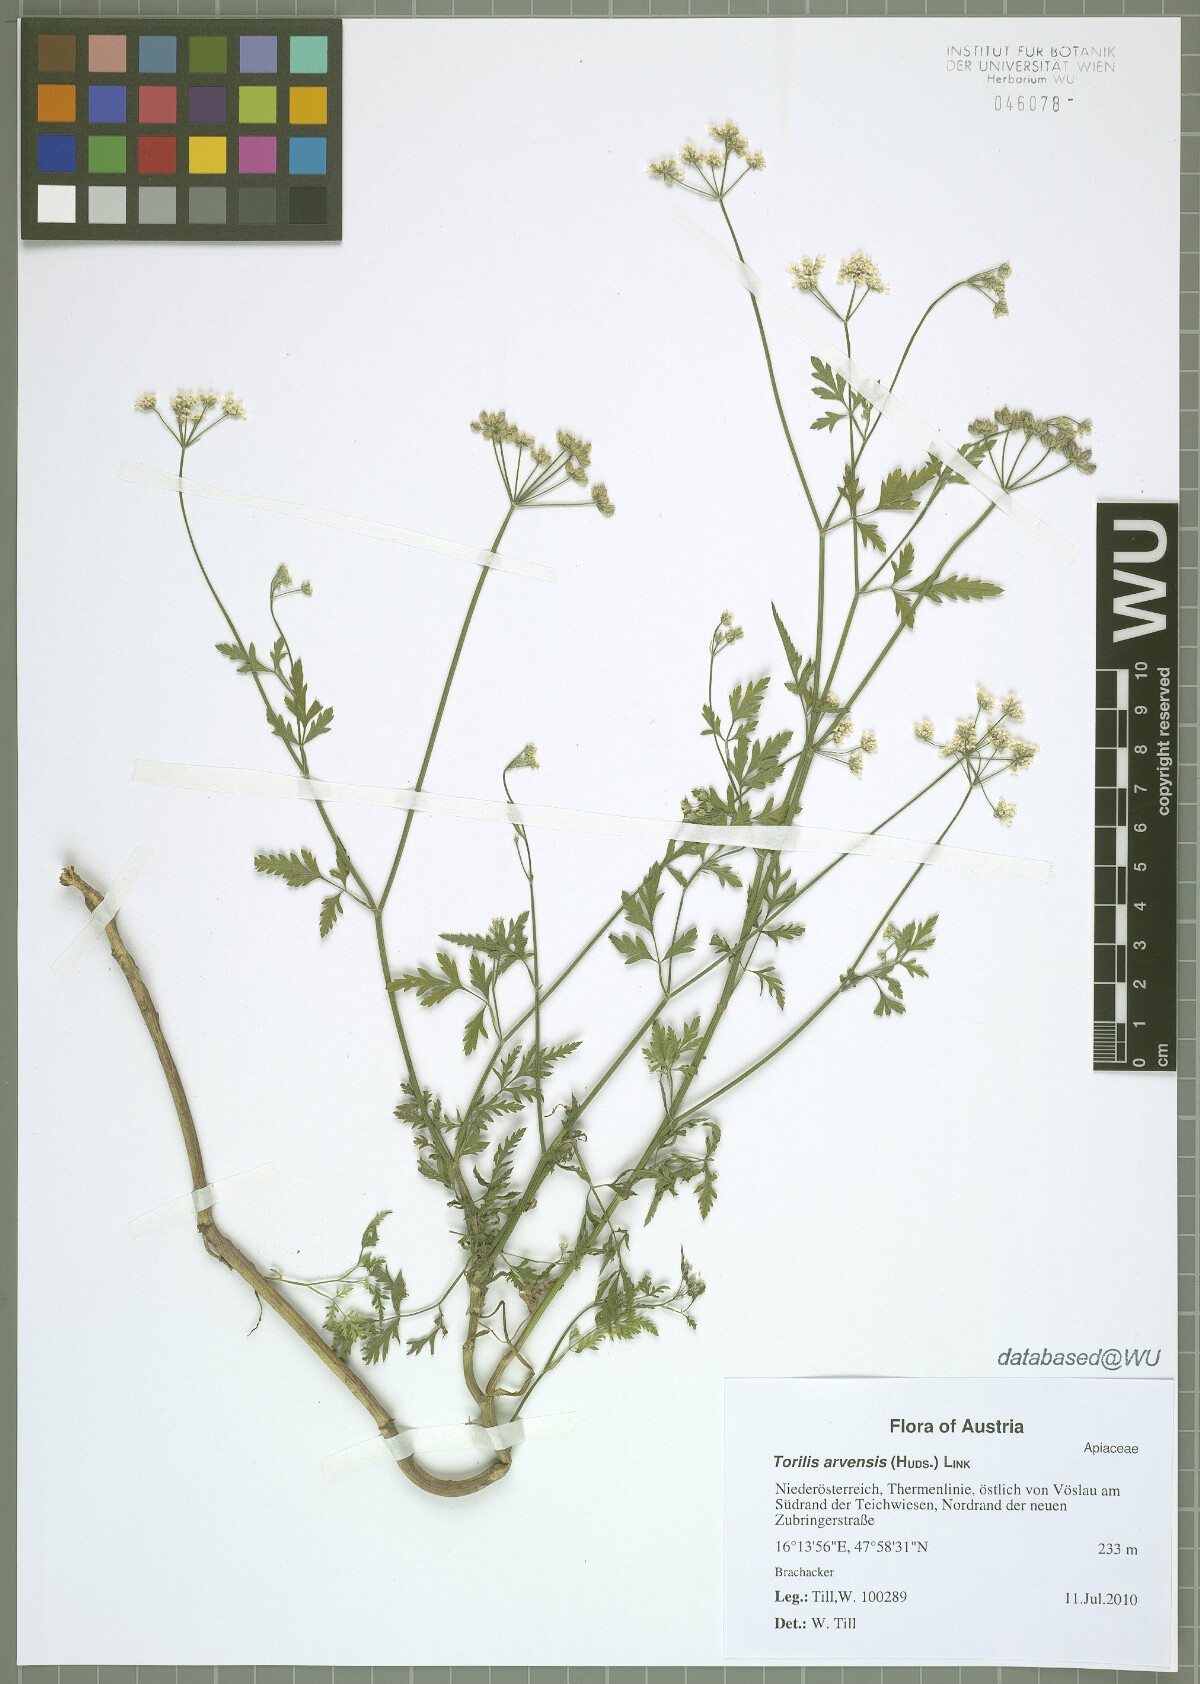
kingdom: Plantae
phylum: Tracheophyta
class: Magnoliopsida
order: Apiales
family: Apiaceae
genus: Torilis
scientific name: Torilis arvensis
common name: Spreading hedge-parsley
